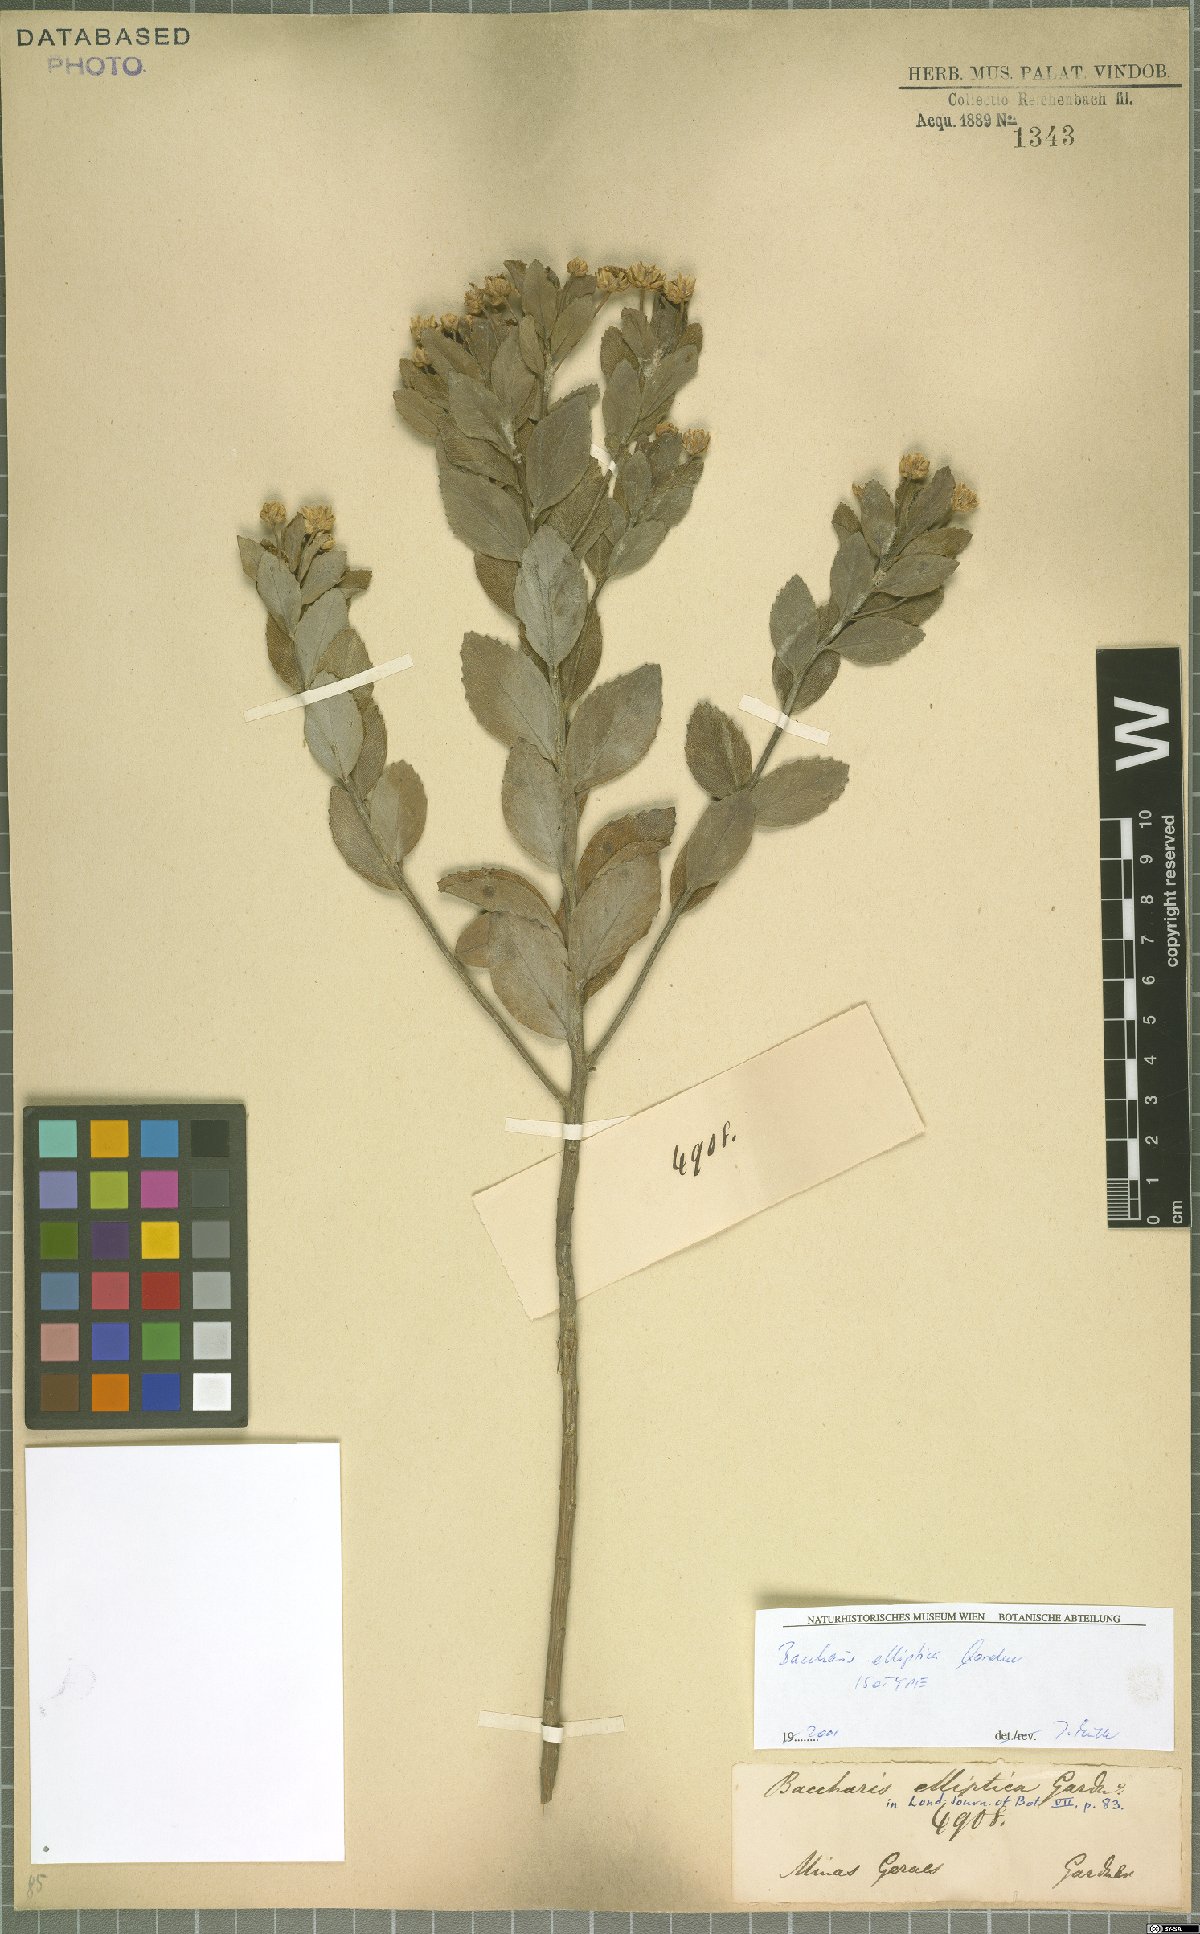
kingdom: Plantae
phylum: Tracheophyta
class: Magnoliopsida
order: Asterales
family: Asteraceae
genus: Baccharis
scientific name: Baccharis elliptica
